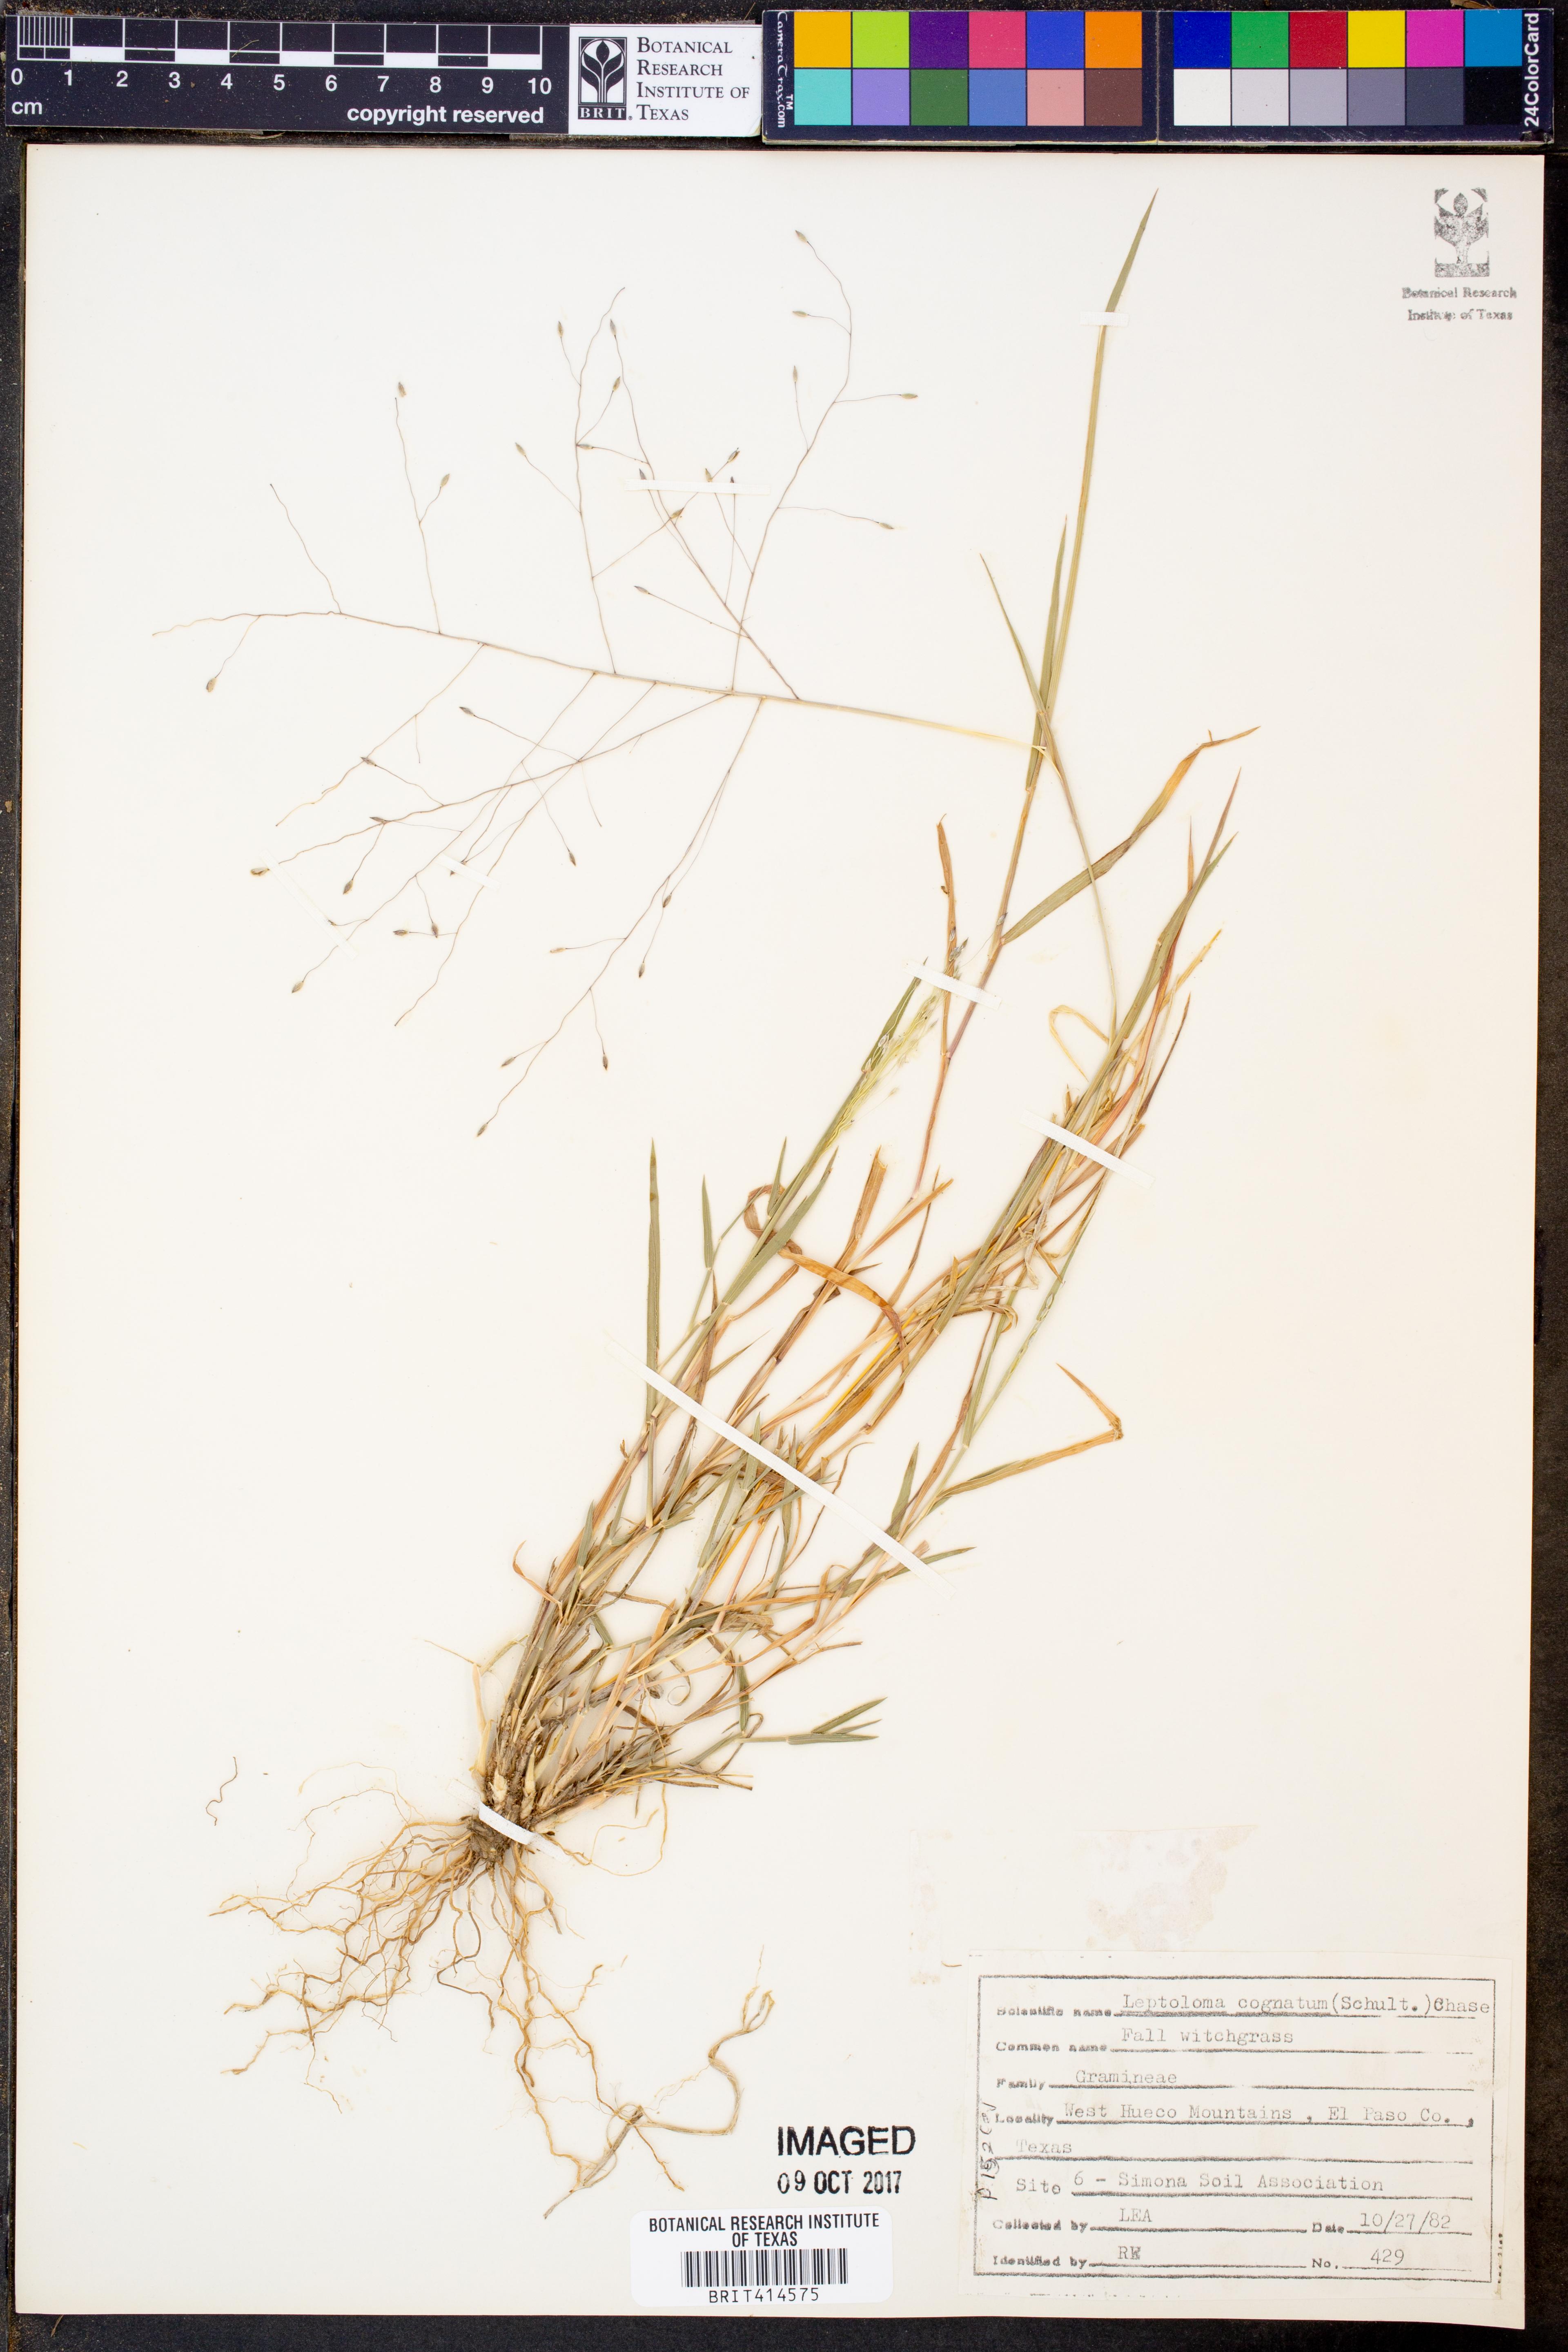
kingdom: Plantae
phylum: Tracheophyta
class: Liliopsida
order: Poales
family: Poaceae
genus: Digitaria
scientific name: Digitaria cognata
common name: Fall witchgrass
